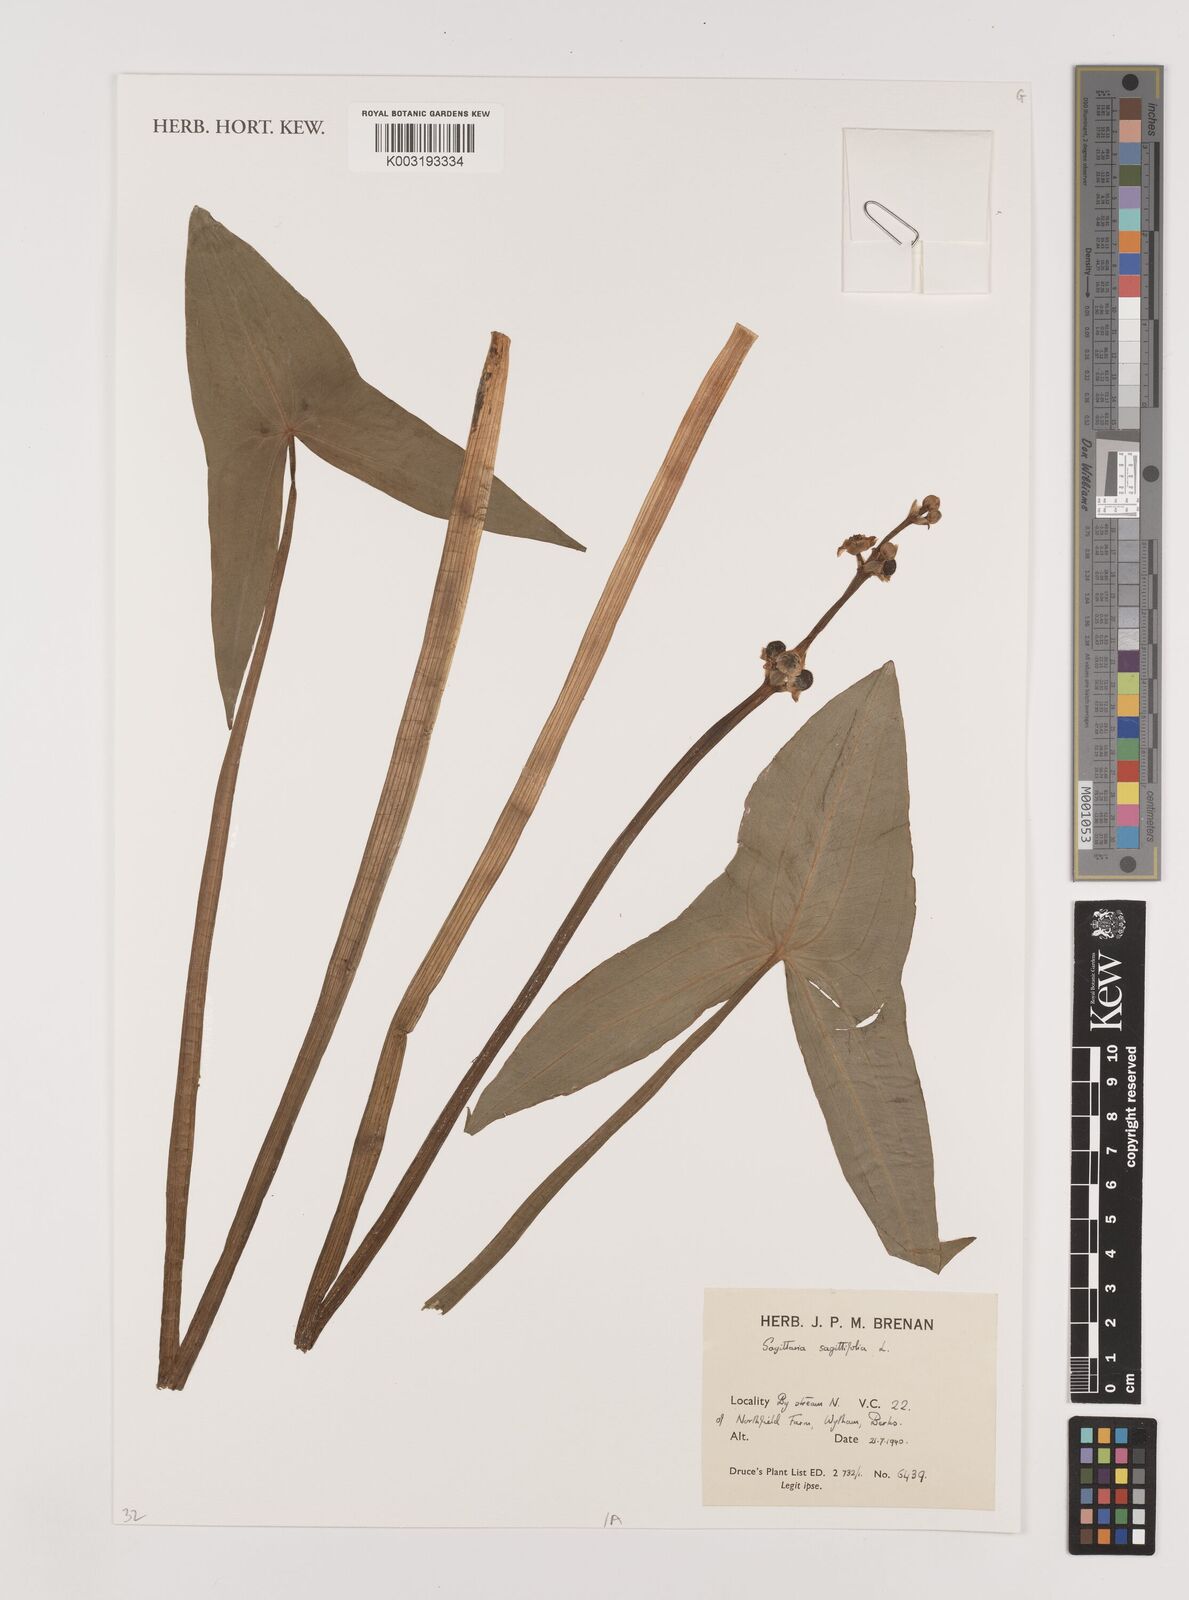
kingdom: Plantae
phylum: Tracheophyta
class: Liliopsida
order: Alismatales
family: Alismataceae
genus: Sagittaria
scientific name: Sagittaria sagittifolia
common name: Arrowhead
